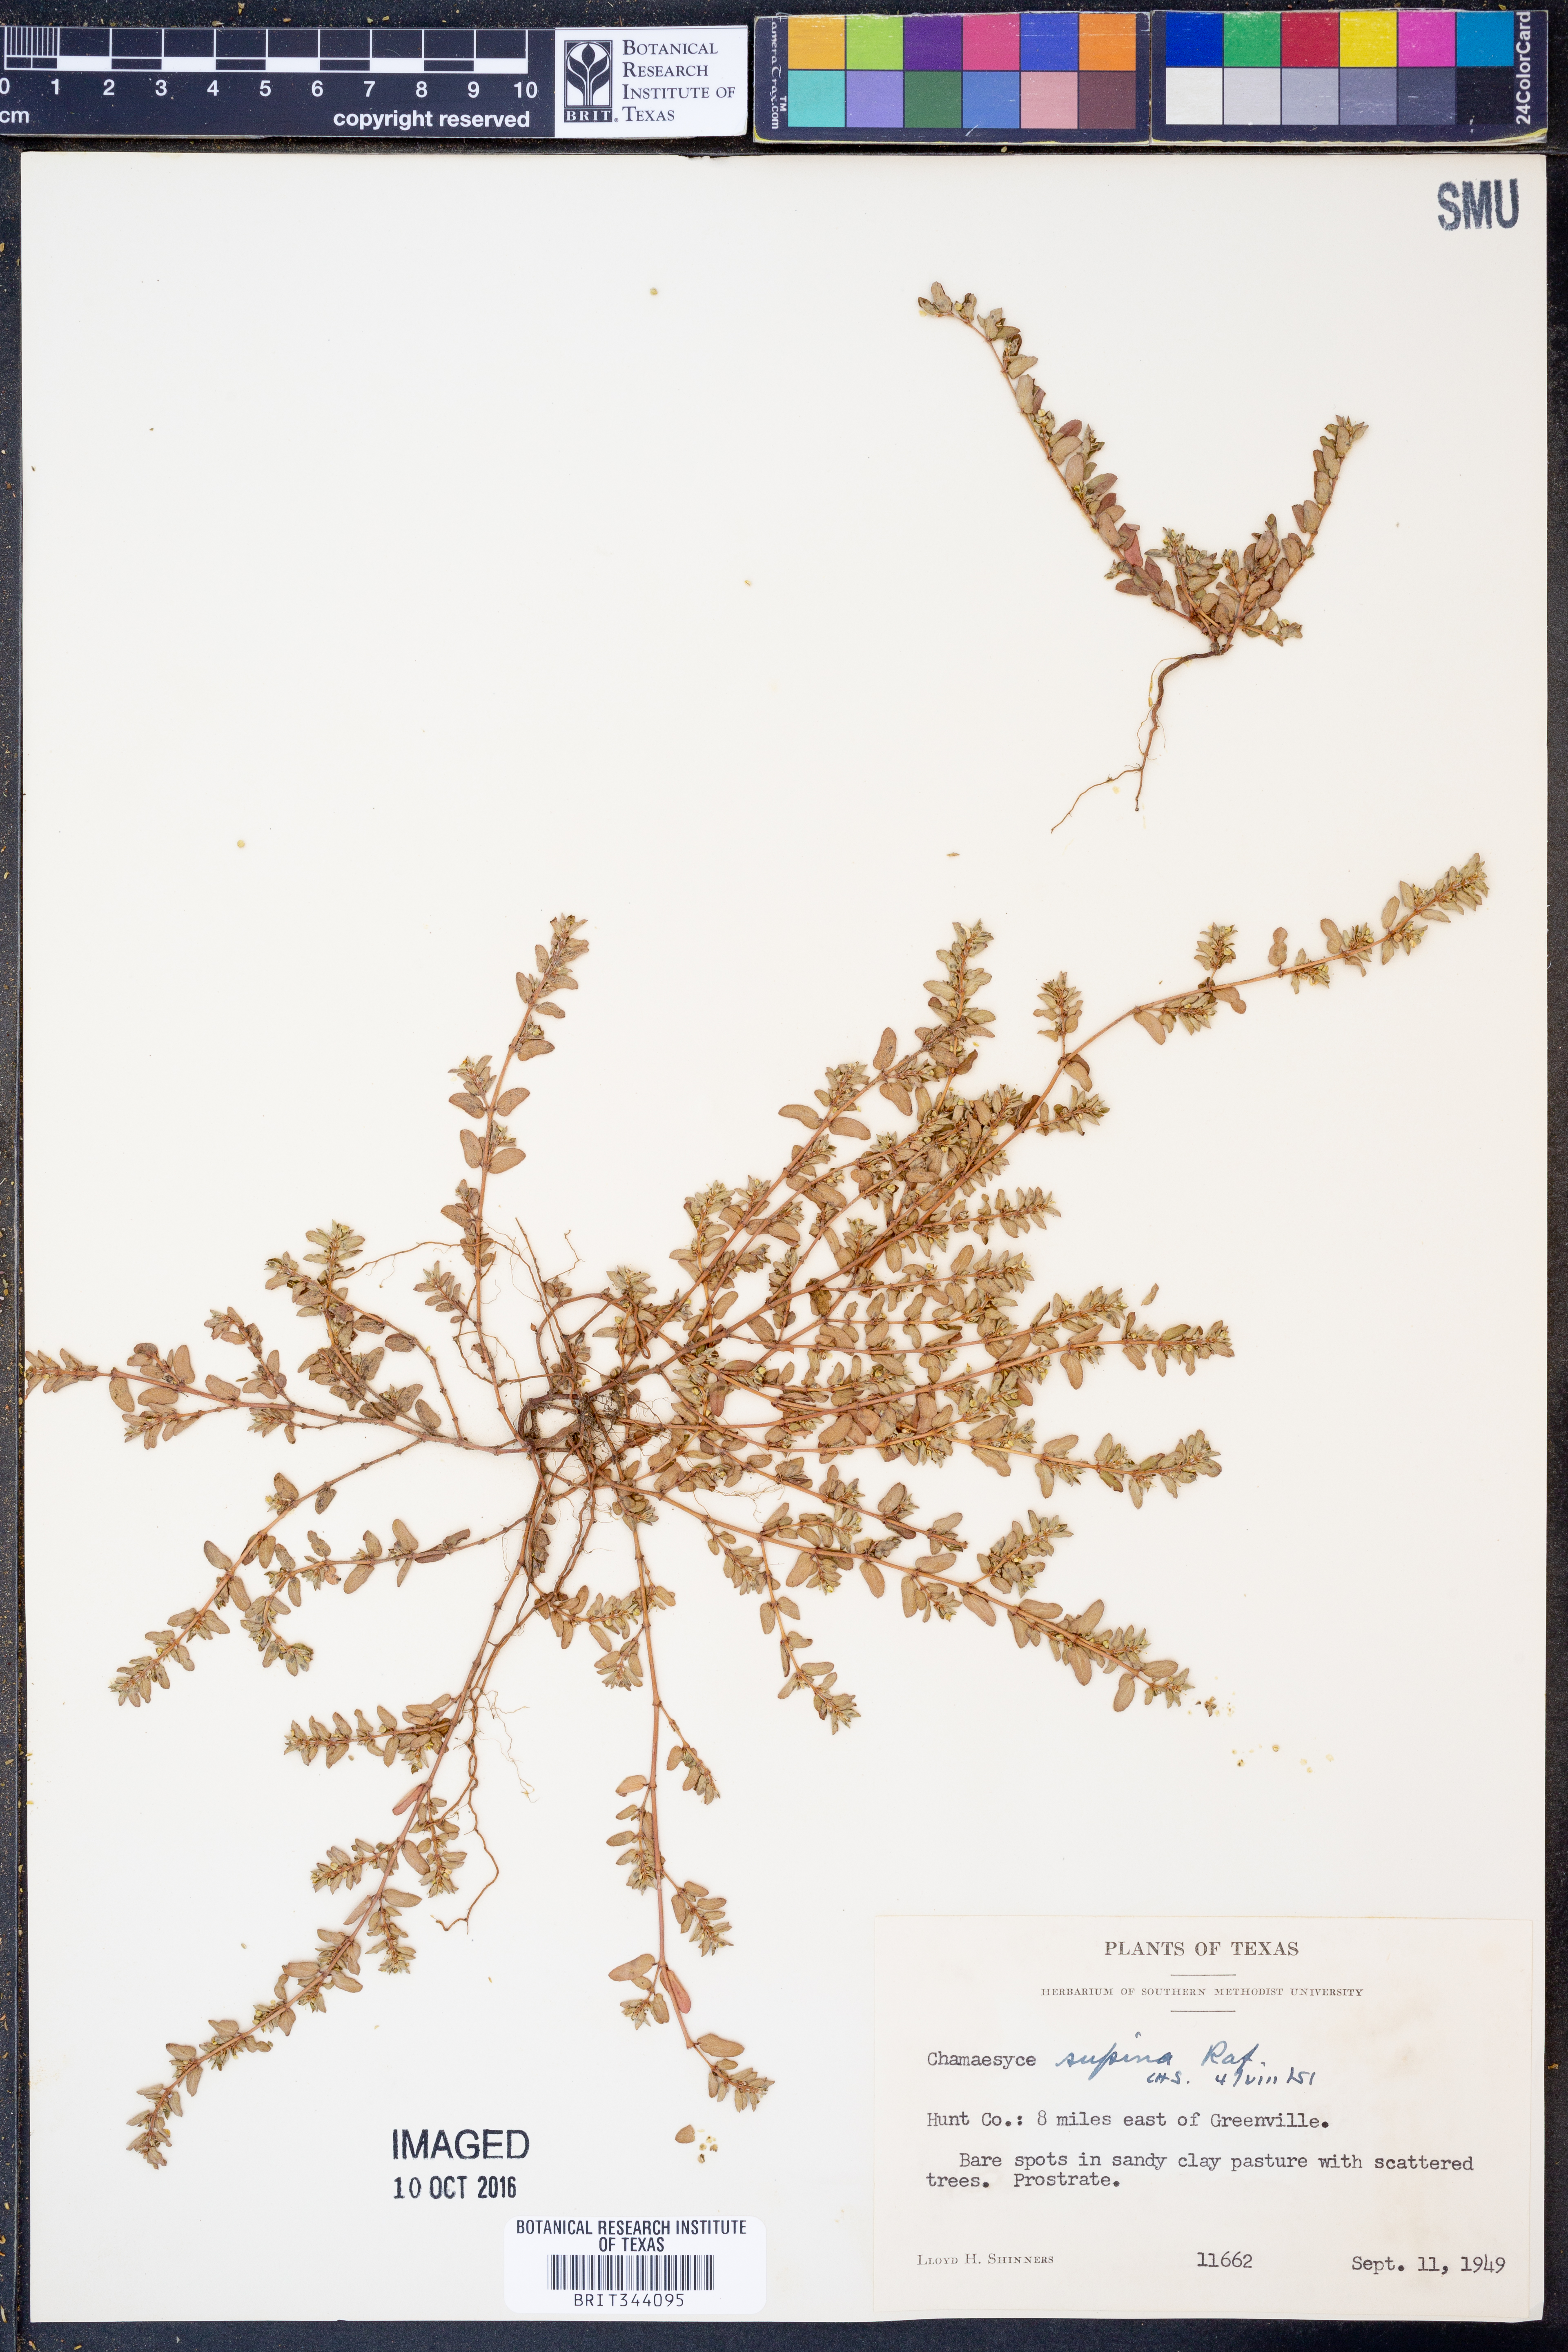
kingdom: Plantae
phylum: Tracheophyta
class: Magnoliopsida
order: Malpighiales
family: Euphorbiaceae
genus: Euphorbia
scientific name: Euphorbia maculata
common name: Spotted spurge
